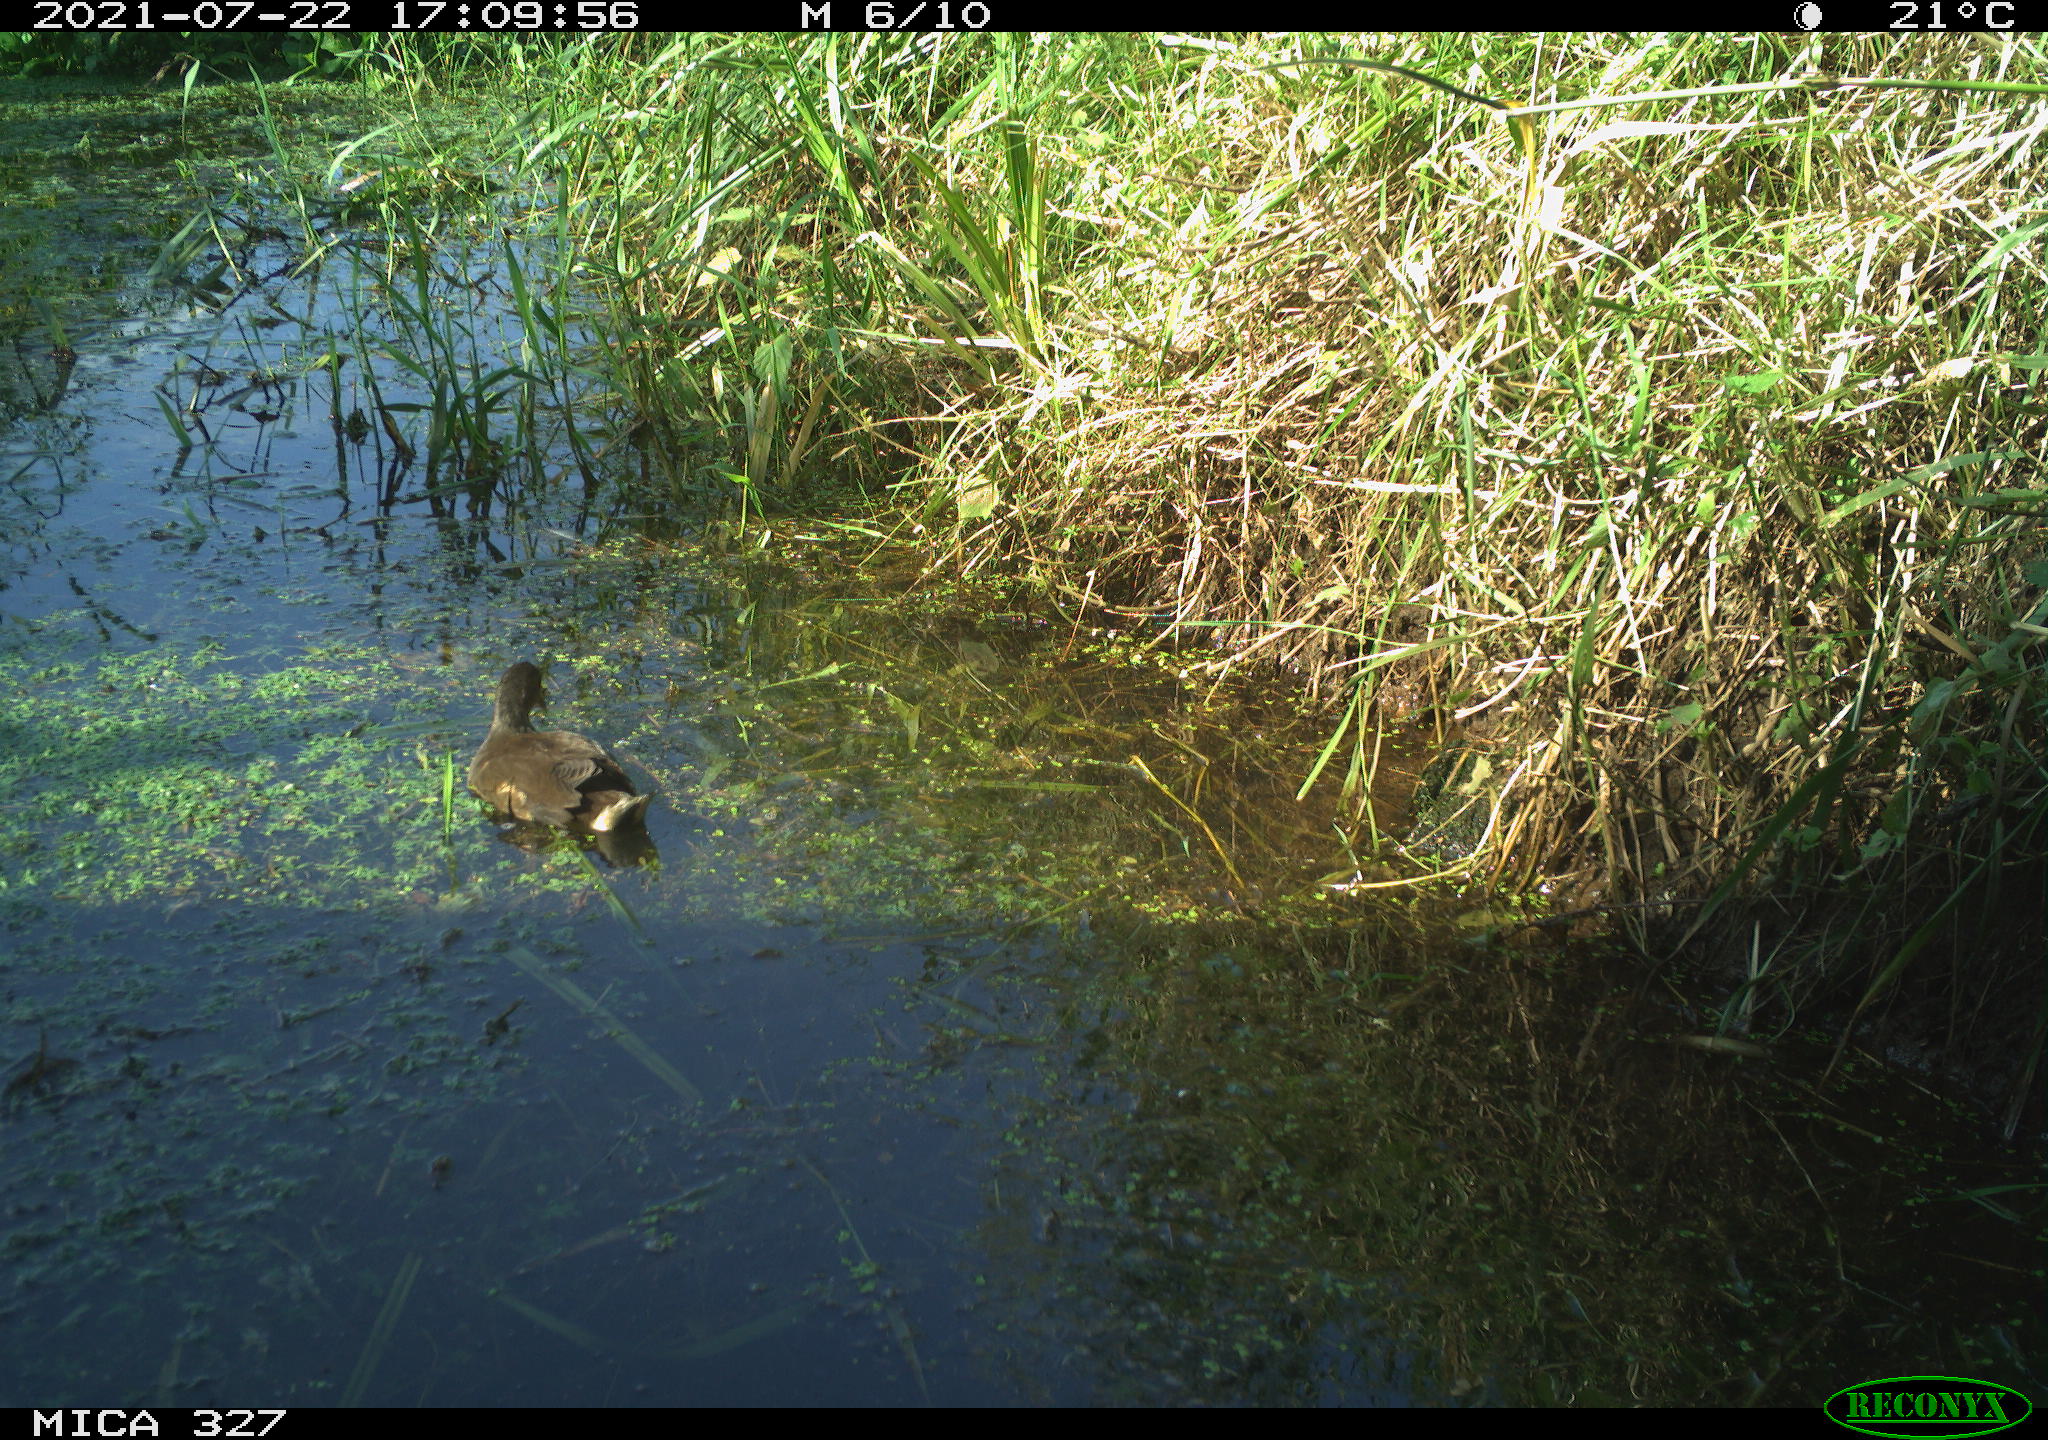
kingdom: Animalia
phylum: Chordata
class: Mammalia
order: Rodentia
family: Cricetidae
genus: Ondatra
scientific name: Ondatra zibethicus
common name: Muskrat
